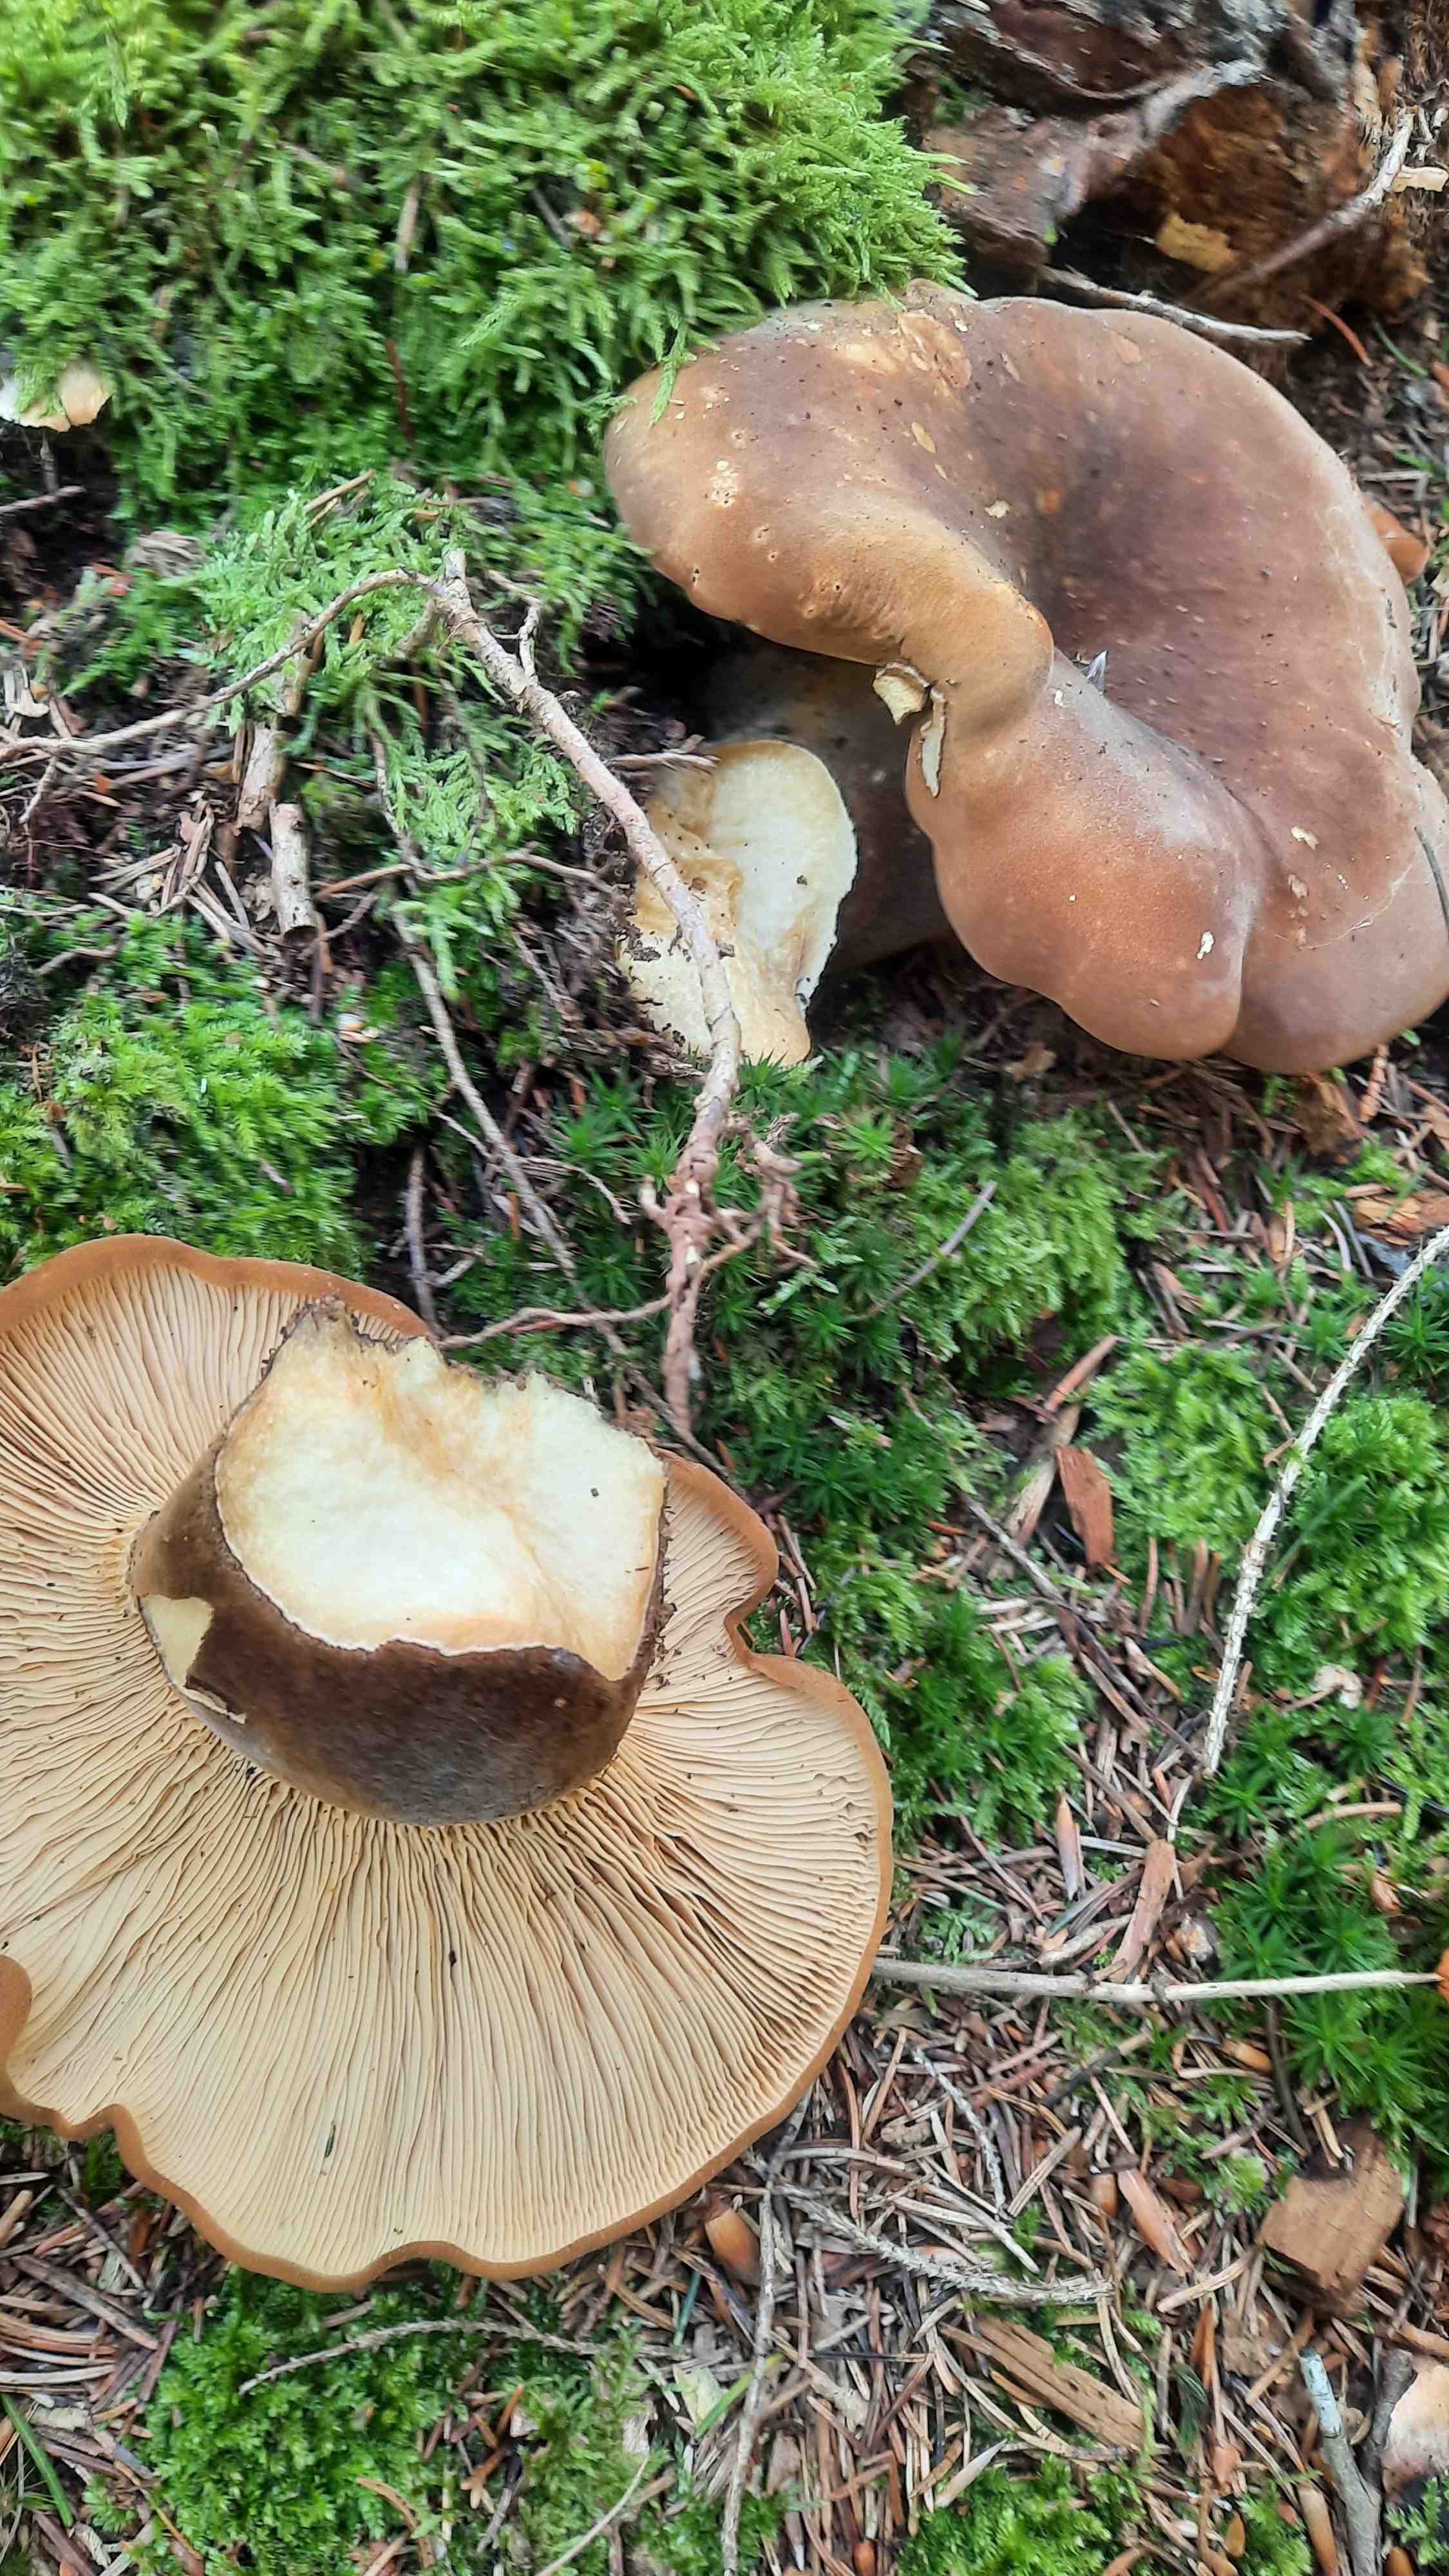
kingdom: Fungi
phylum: Basidiomycota
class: Agaricomycetes
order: Boletales
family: Tapinellaceae
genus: Tapinella
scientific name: Tapinella atrotomentosa
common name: sortfiltet viftesvamp
